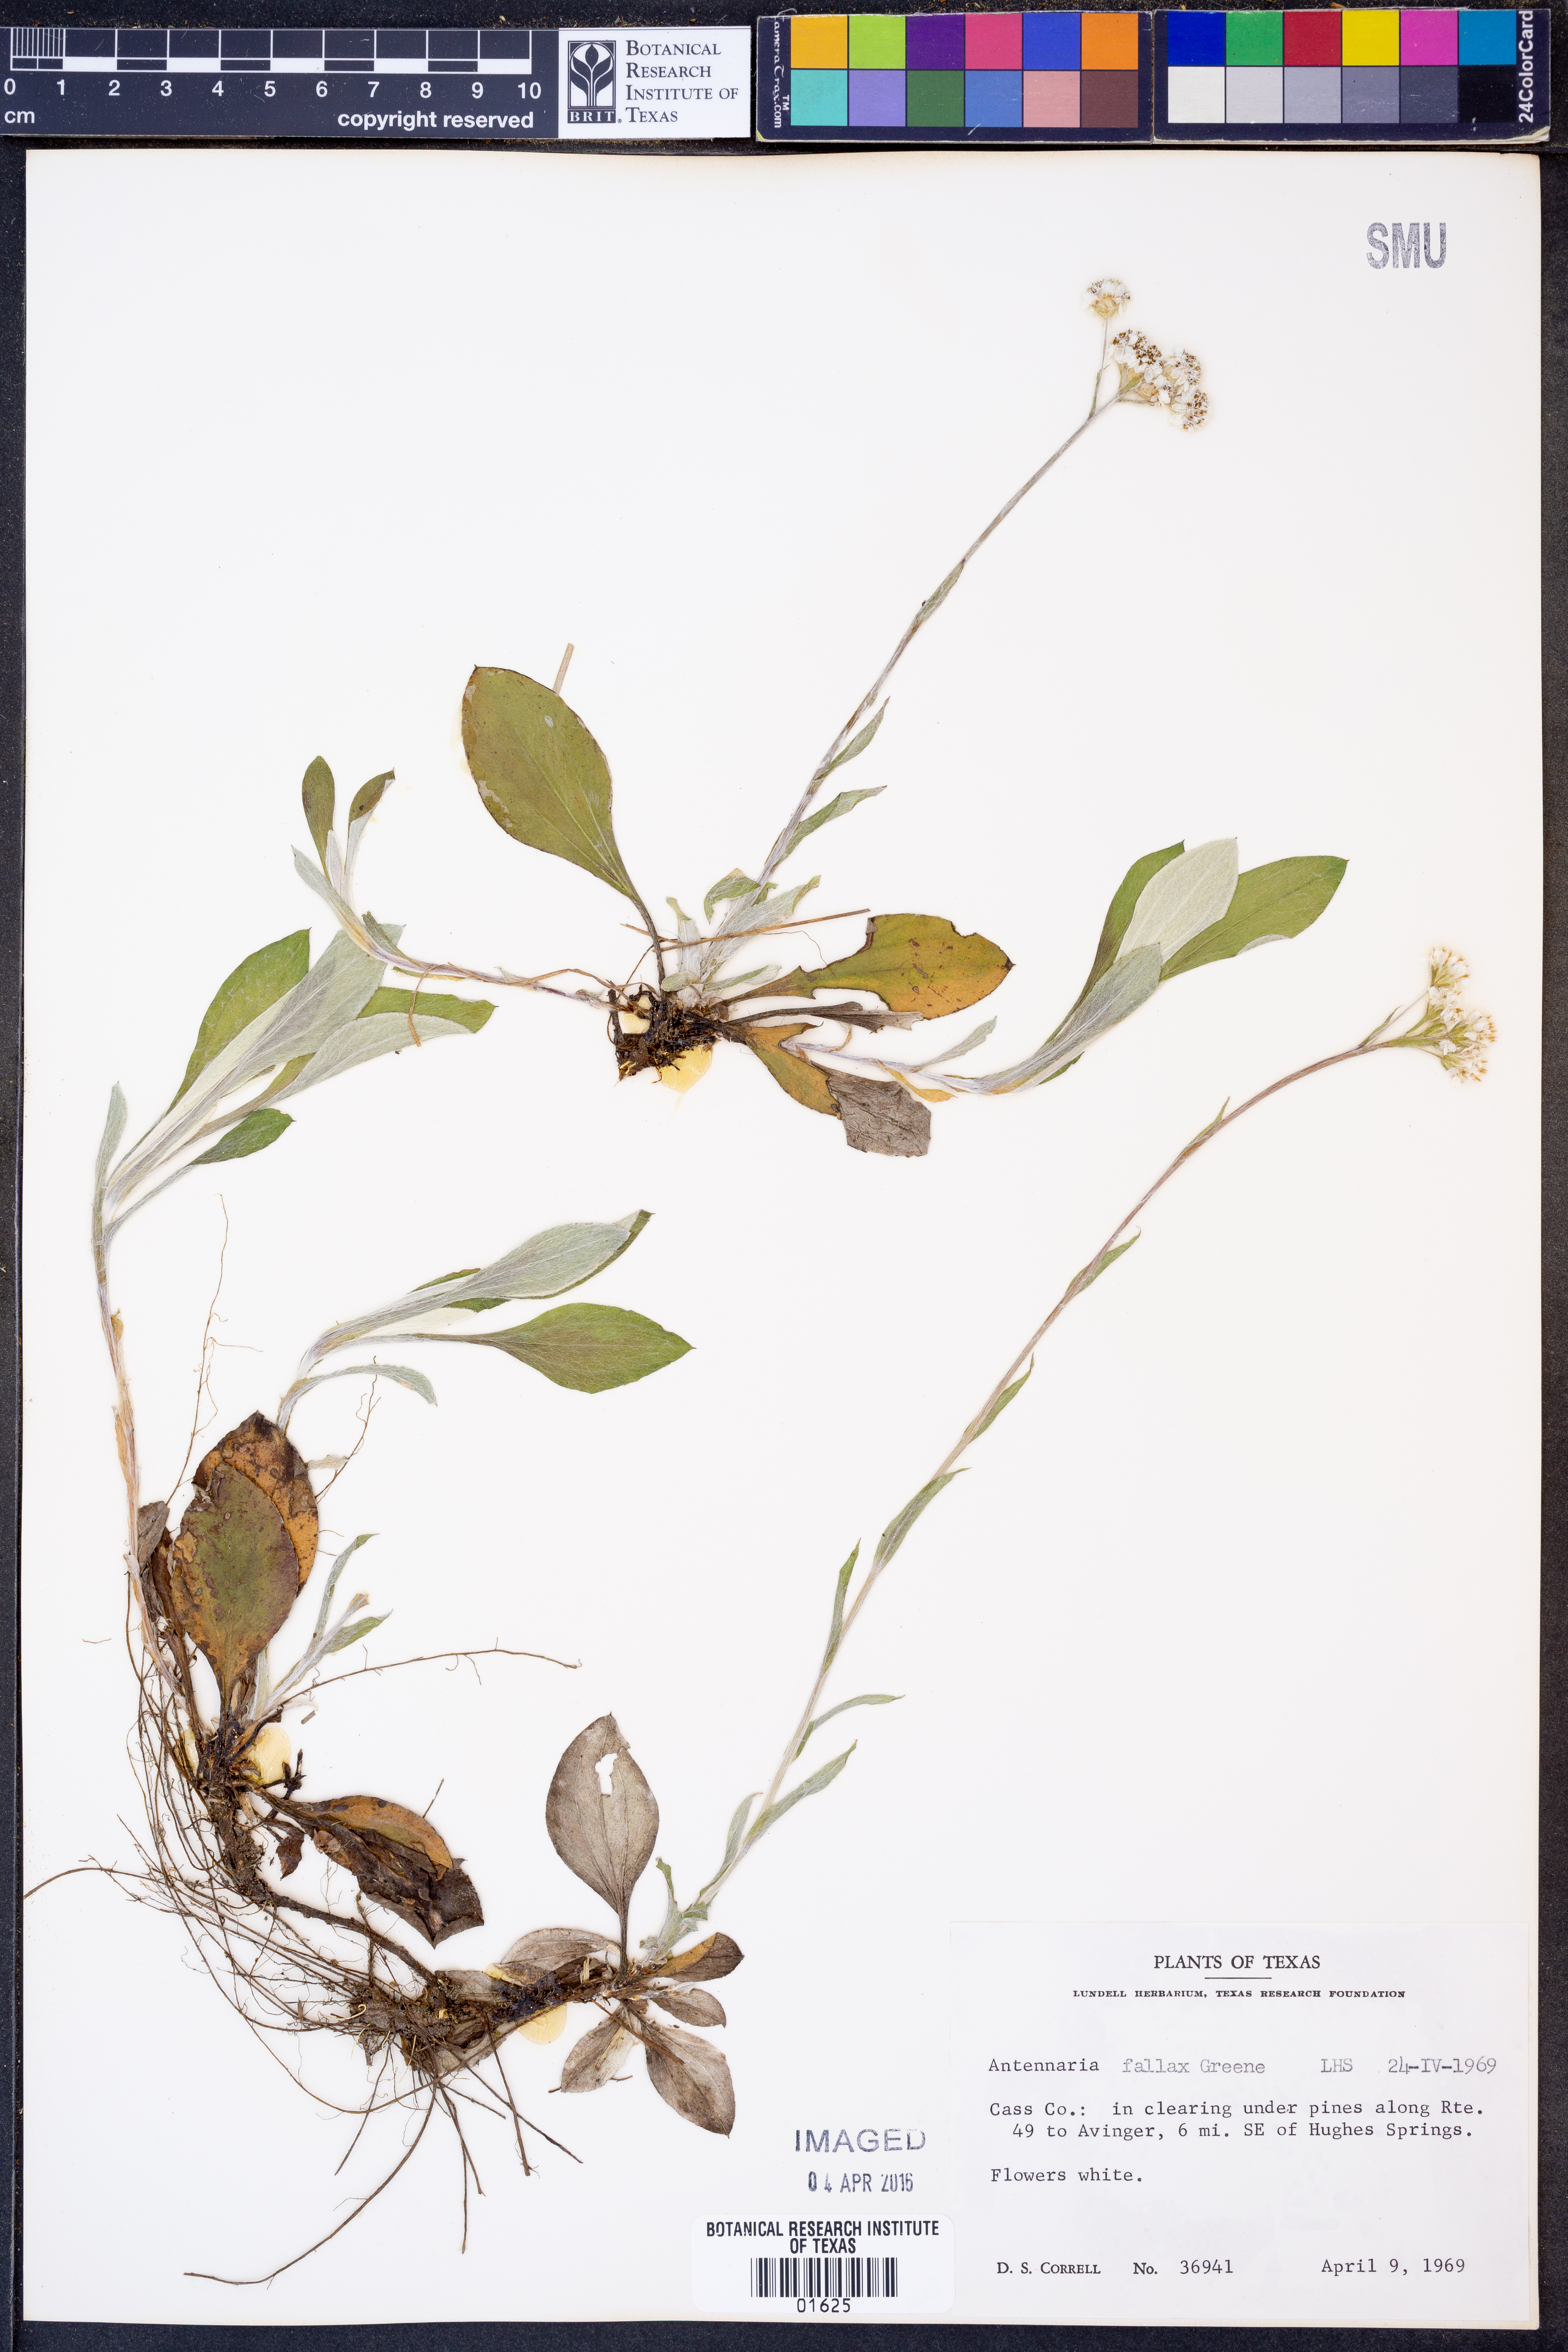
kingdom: Plantae
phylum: Tracheophyta
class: Magnoliopsida
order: Asterales
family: Asteraceae
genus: Antennaria
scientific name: Antennaria parlinii
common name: Parlin's pussytoes
